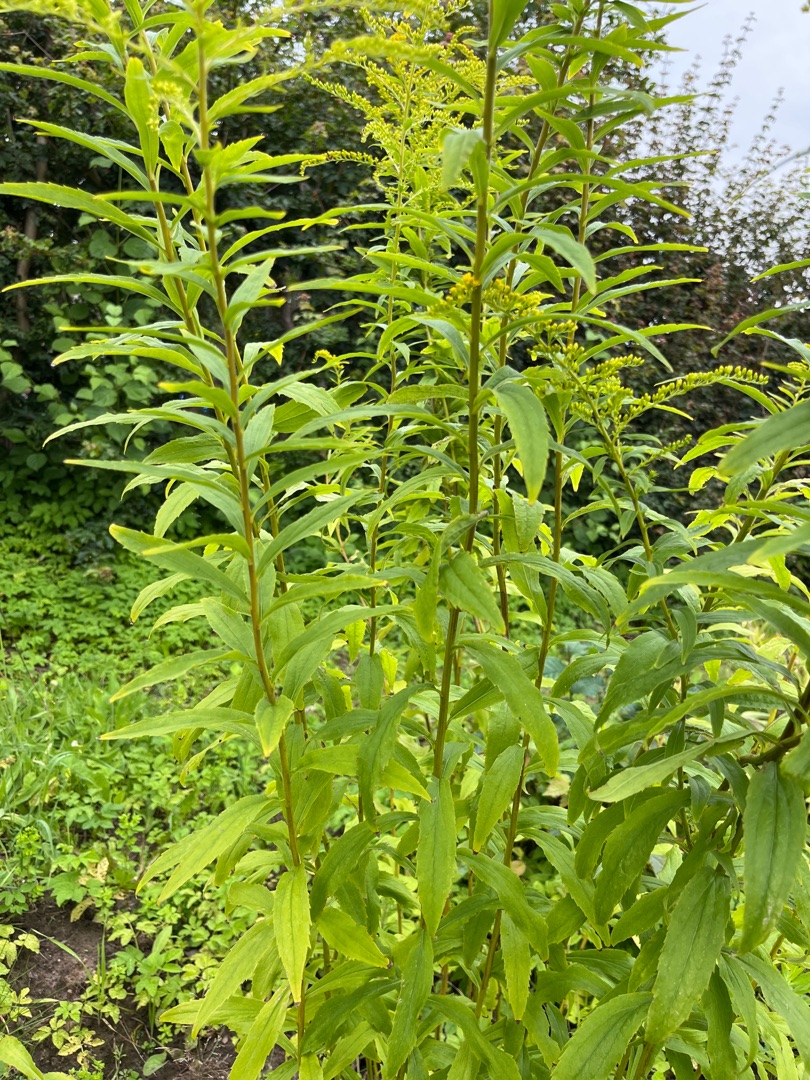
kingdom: Plantae
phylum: Tracheophyta
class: Magnoliopsida
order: Asterales
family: Asteraceae
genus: Solidago
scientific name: Solidago
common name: Gyldenrisslægten
